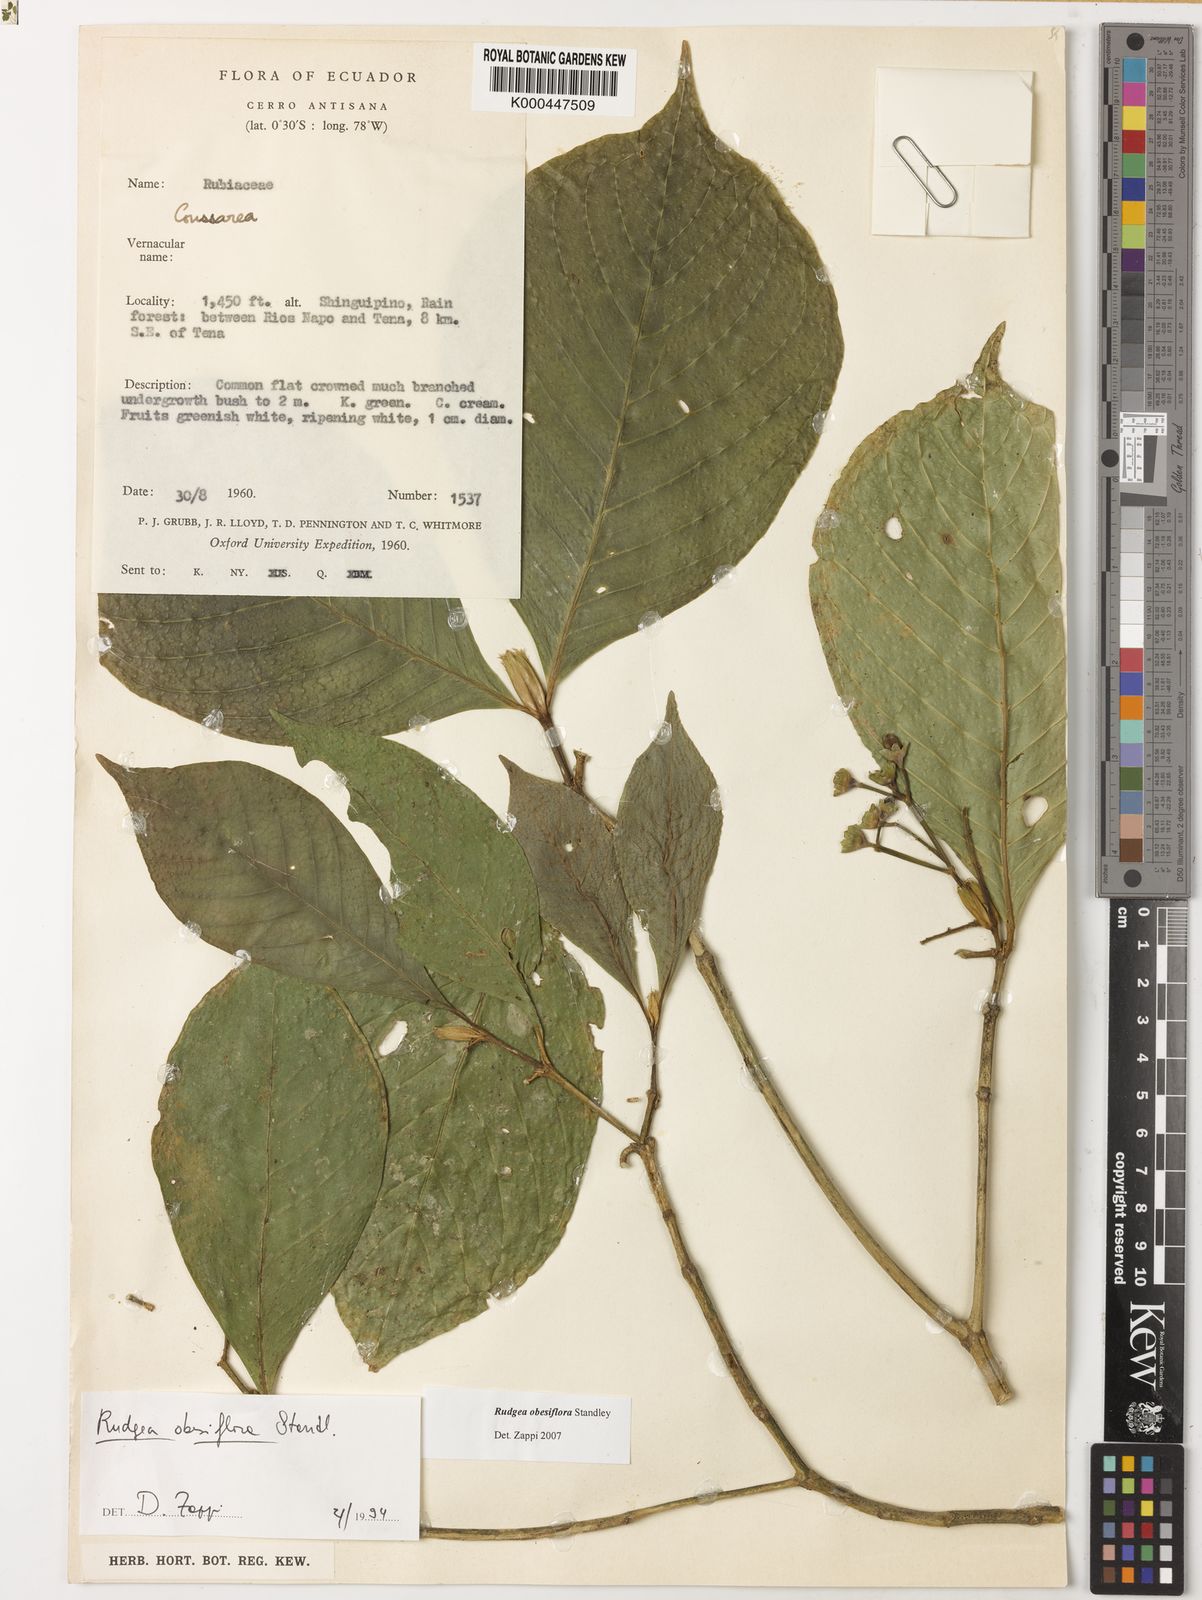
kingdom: Plantae
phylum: Tracheophyta
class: Magnoliopsida
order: Gentianales
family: Rubiaceae
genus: Rudgea
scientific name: Rudgea obesiflora
